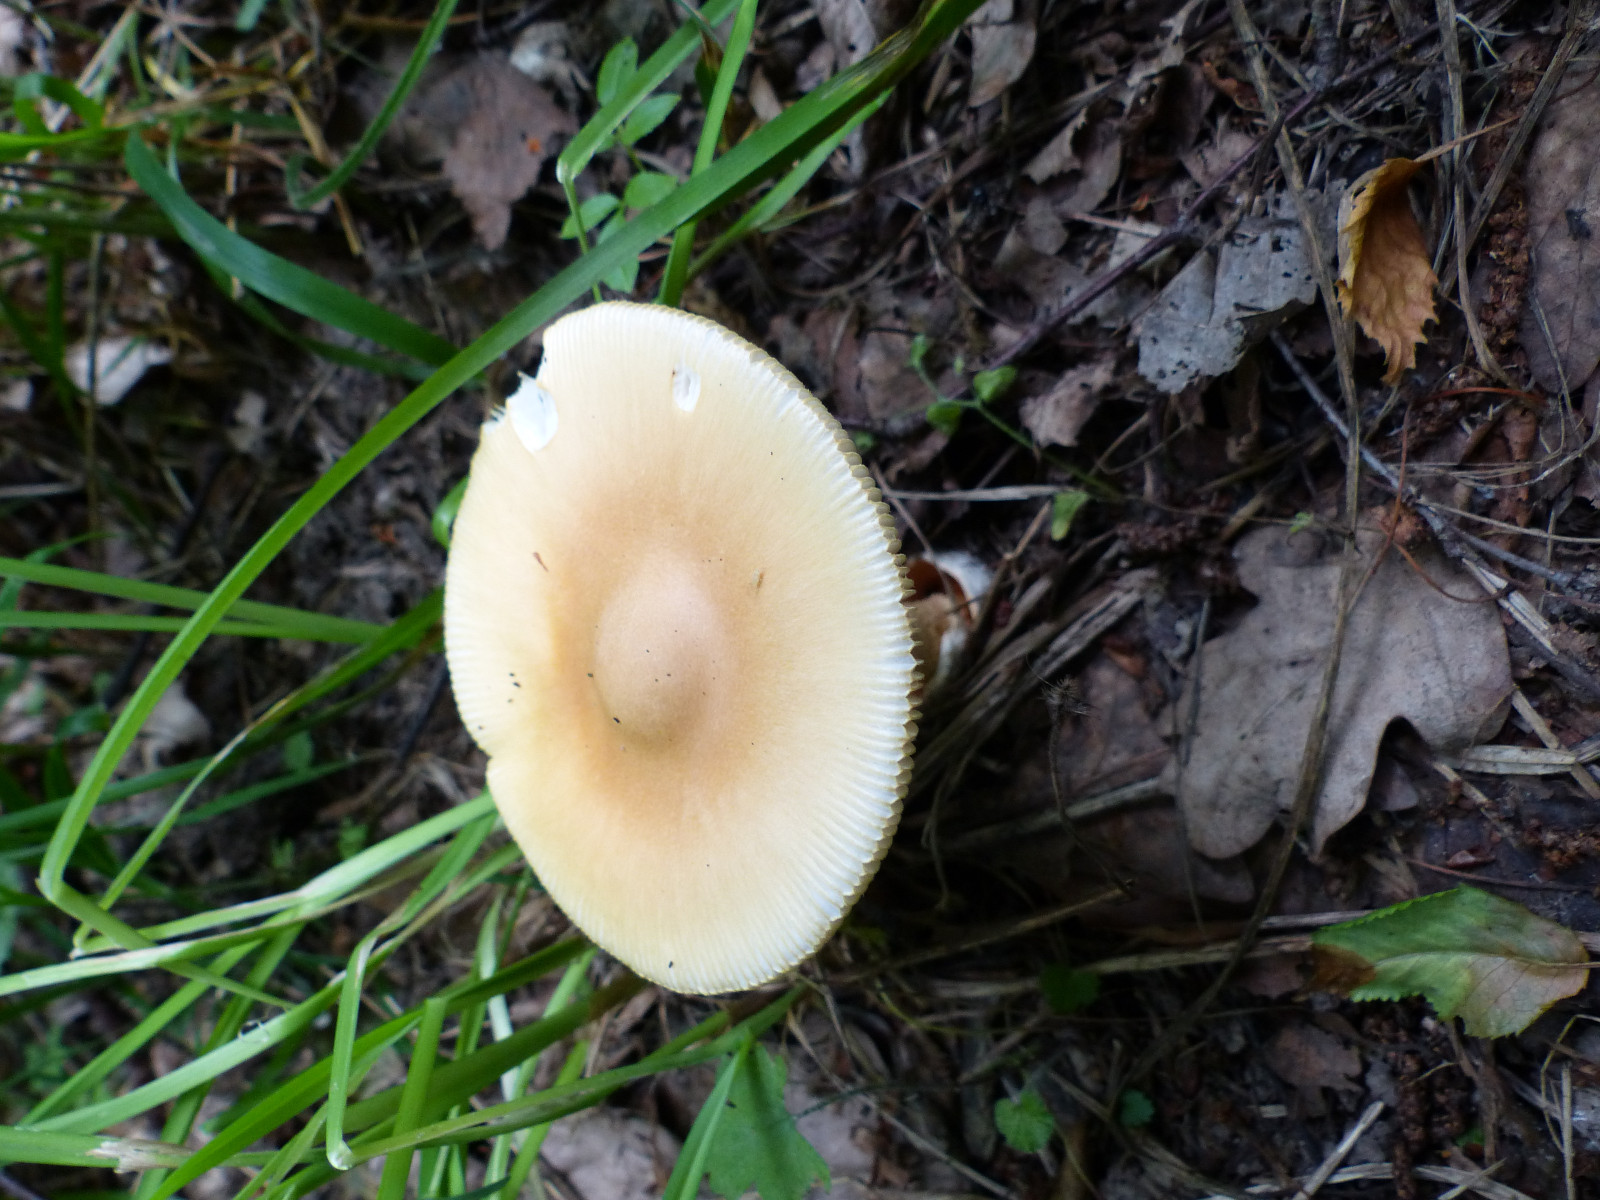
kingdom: Fungi
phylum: Basidiomycota
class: Agaricomycetes
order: Agaricales
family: Amanitaceae
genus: Amanita
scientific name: Amanita crocea
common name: gylden kam-fluesvamp
